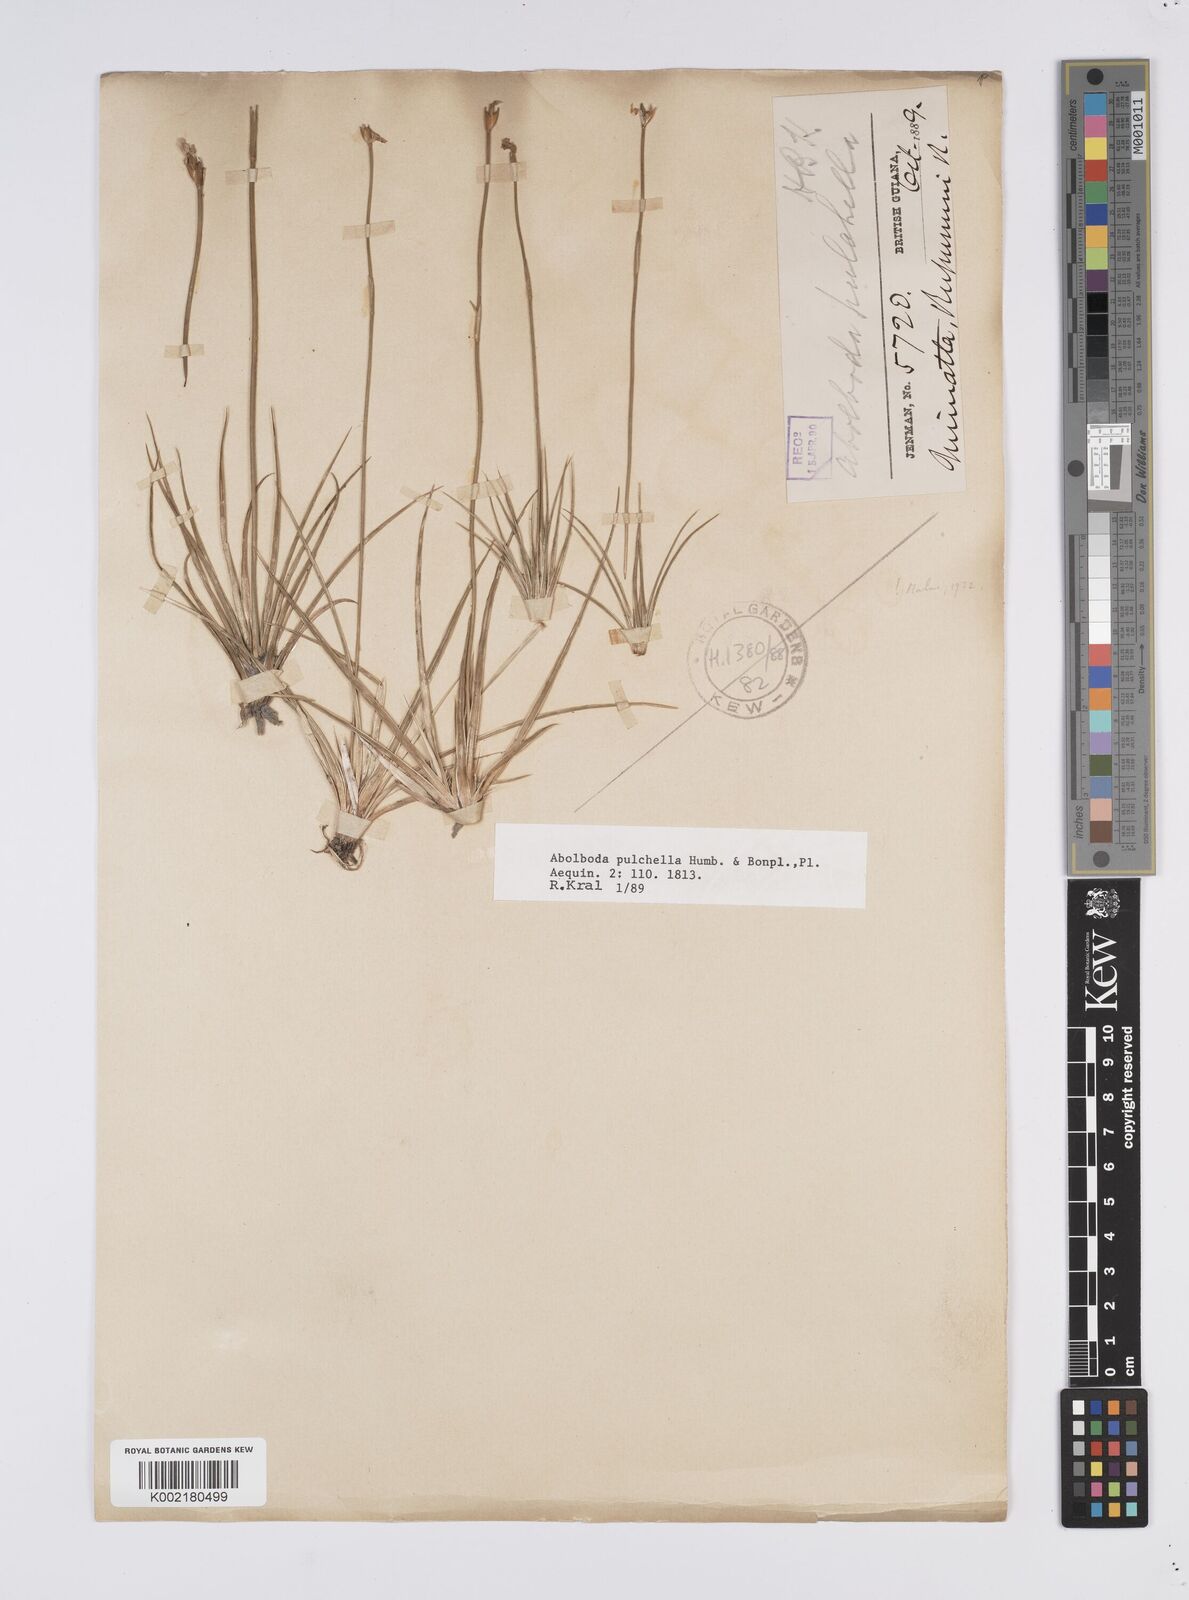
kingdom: Plantae
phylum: Tracheophyta
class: Liliopsida
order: Poales
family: Xyridaceae
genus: Abolboda
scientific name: Abolboda pulchella
